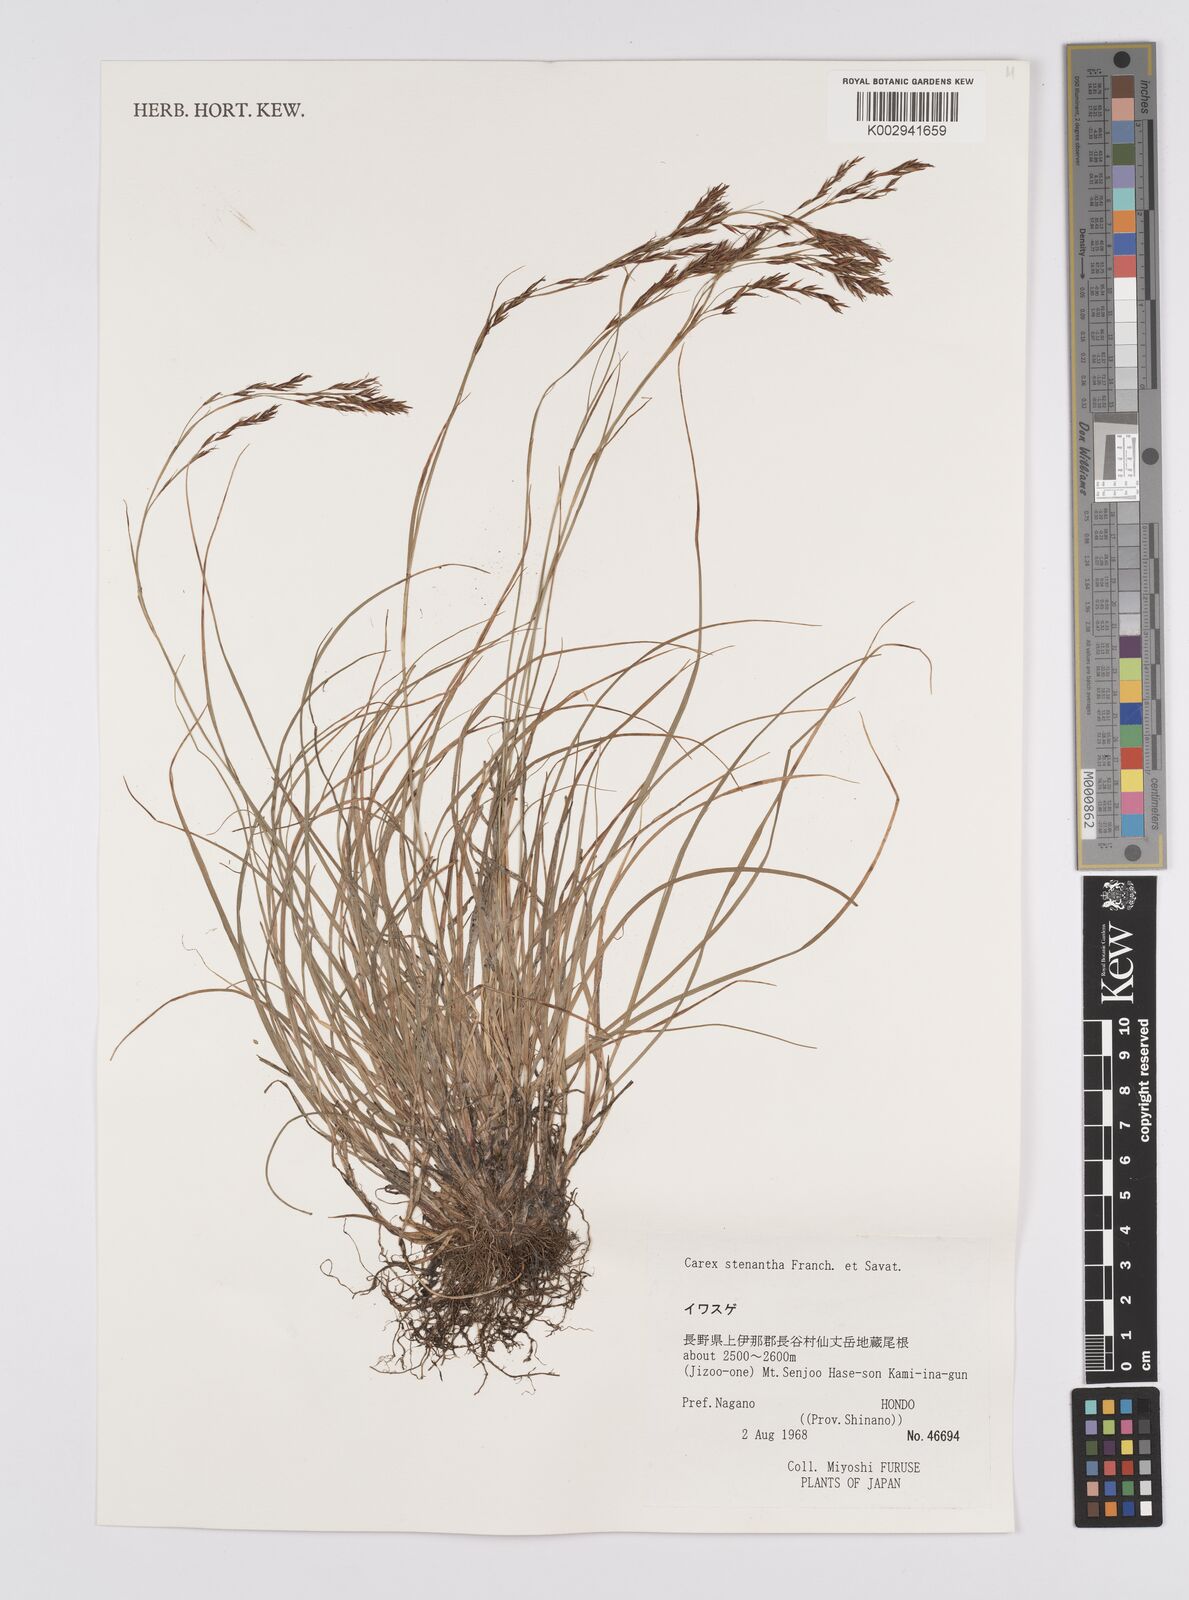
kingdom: Plantae
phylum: Tracheophyta
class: Liliopsida
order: Poales
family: Cyperaceae
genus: Carex
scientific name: Carex stenantha
